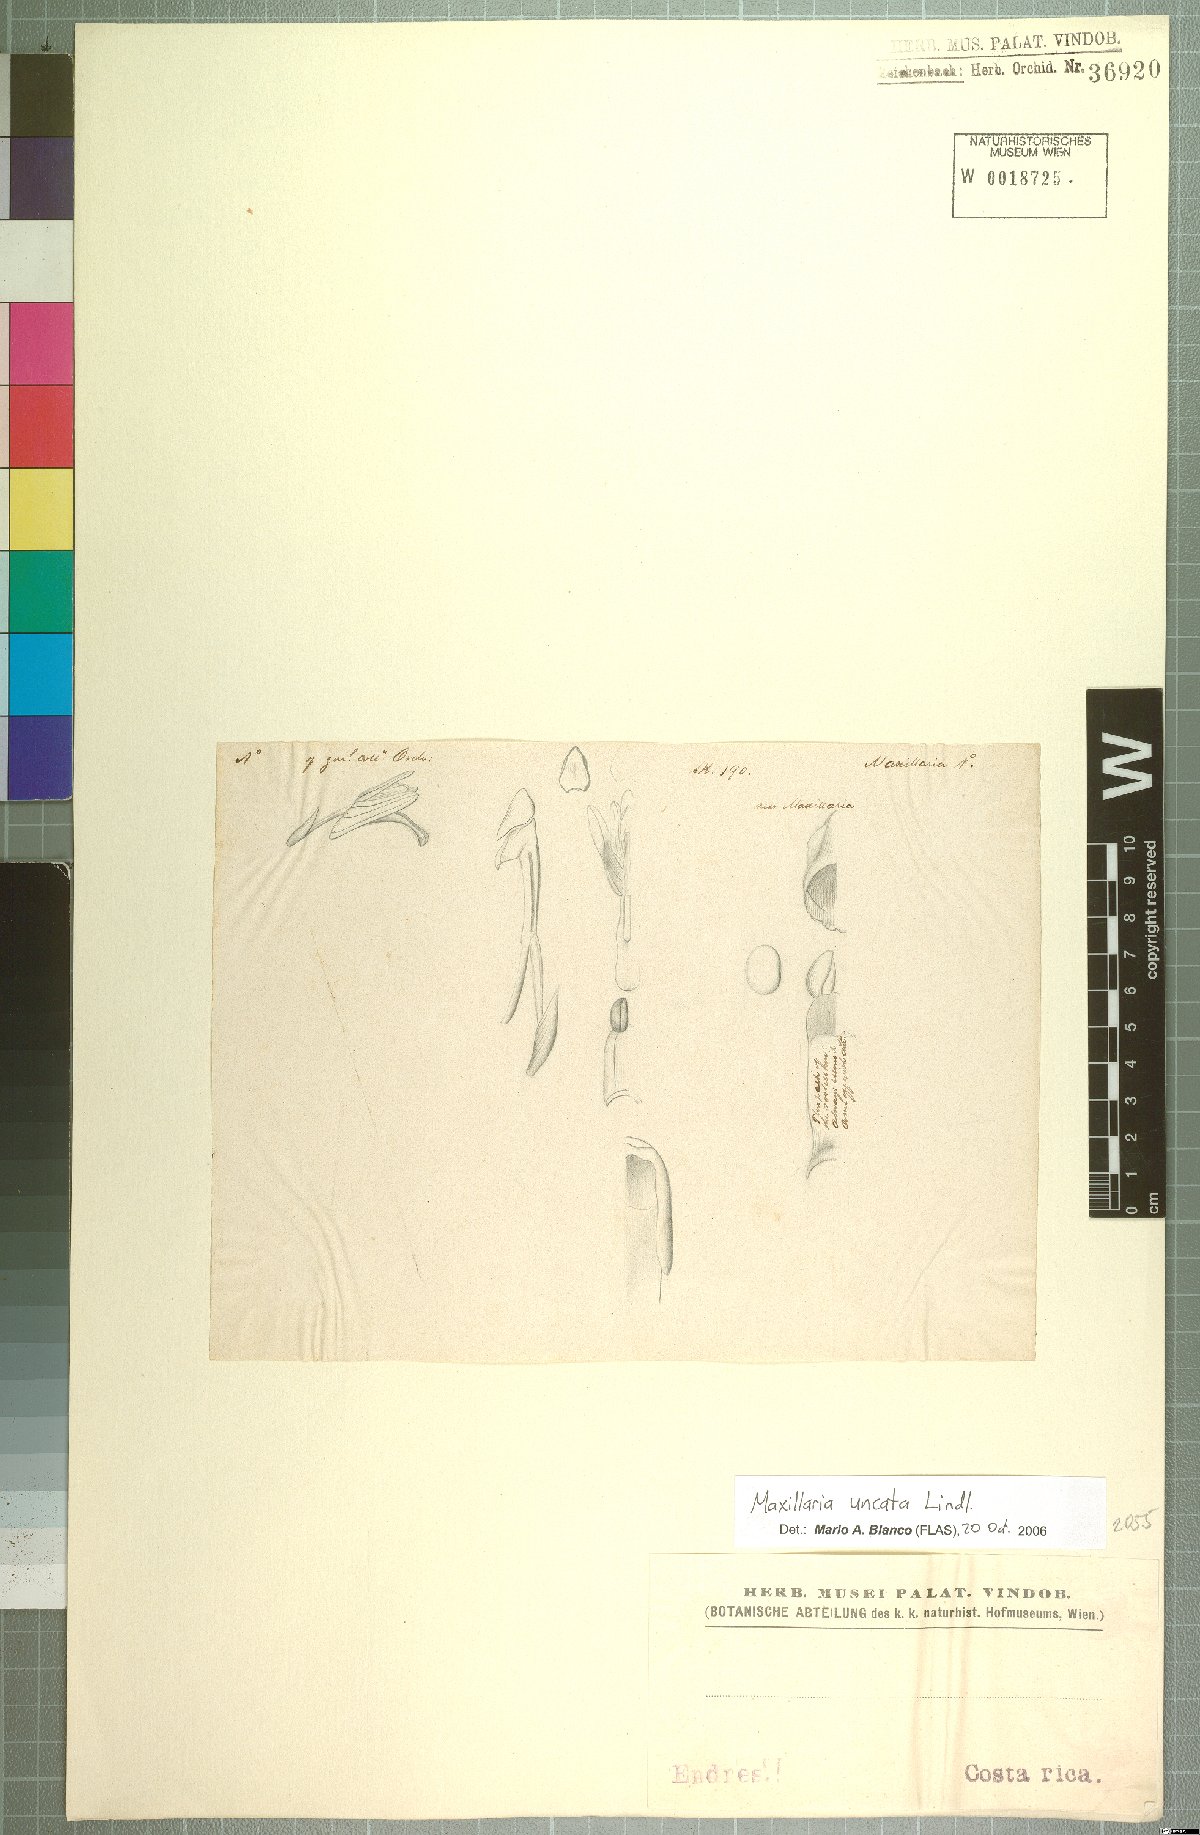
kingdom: Plantae
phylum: Tracheophyta
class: Liliopsida
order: Asparagales
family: Orchidaceae
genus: Maxillaria
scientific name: Maxillaria uncata
